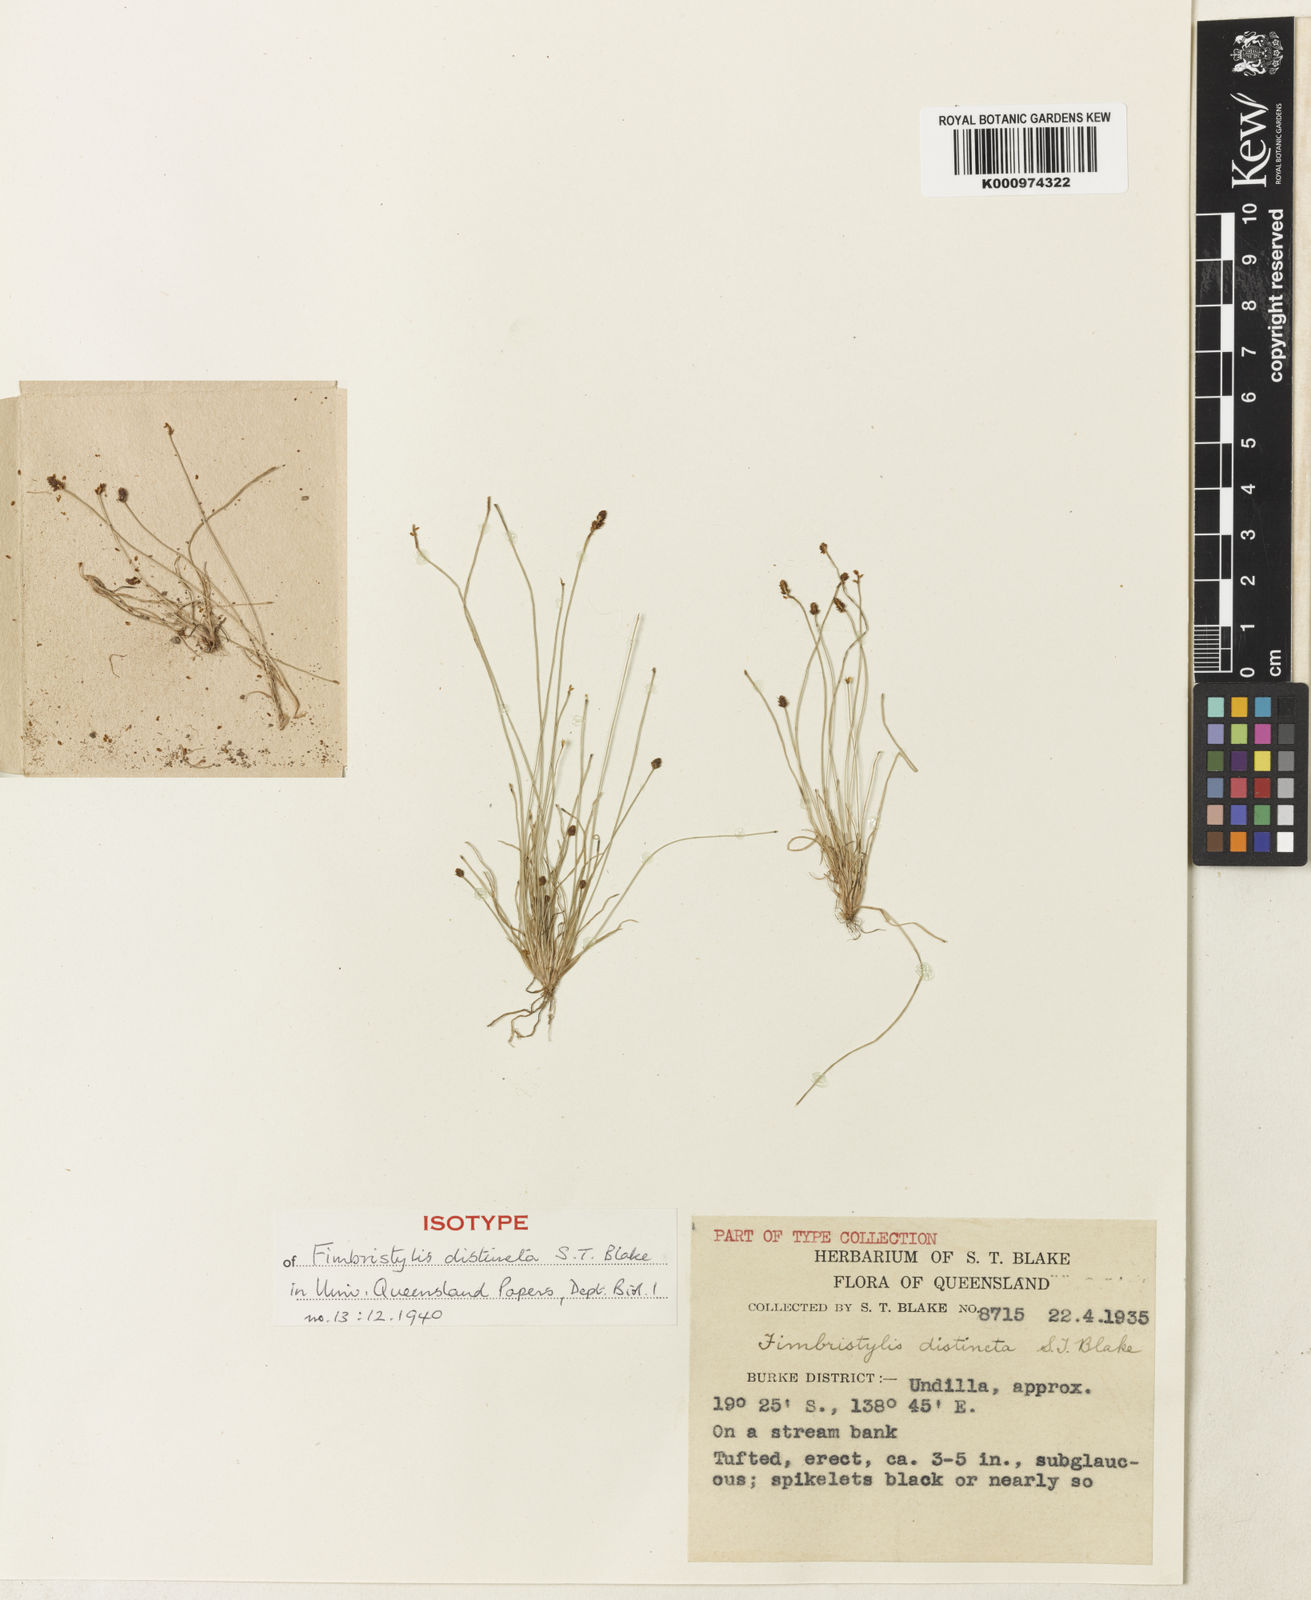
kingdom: Plantae
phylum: Tracheophyta
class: Liliopsida
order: Poales
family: Cyperaceae
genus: Fimbristylis
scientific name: Fimbristylis distincta
